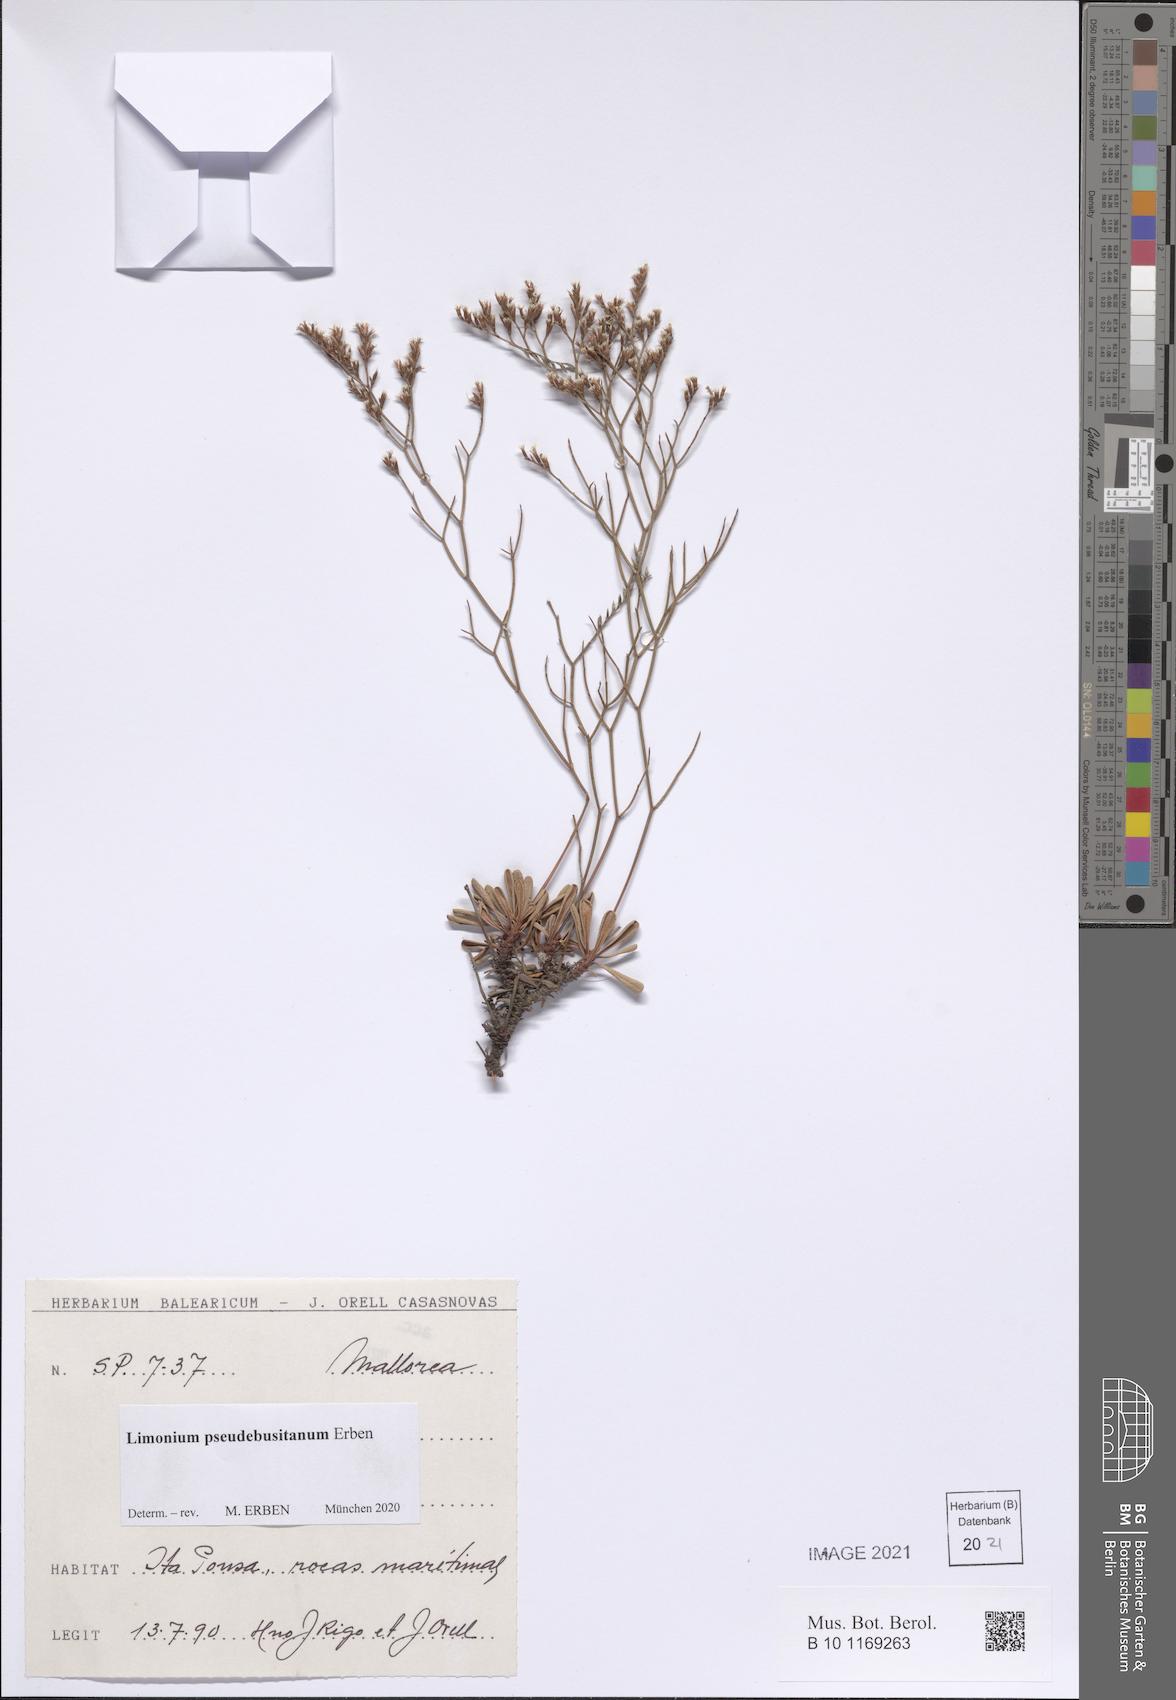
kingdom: Plantae
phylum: Tracheophyta
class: Magnoliopsida
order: Caryophyllales
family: Plumbaginaceae
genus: Limonium
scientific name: Limonium pseudebusitanum
